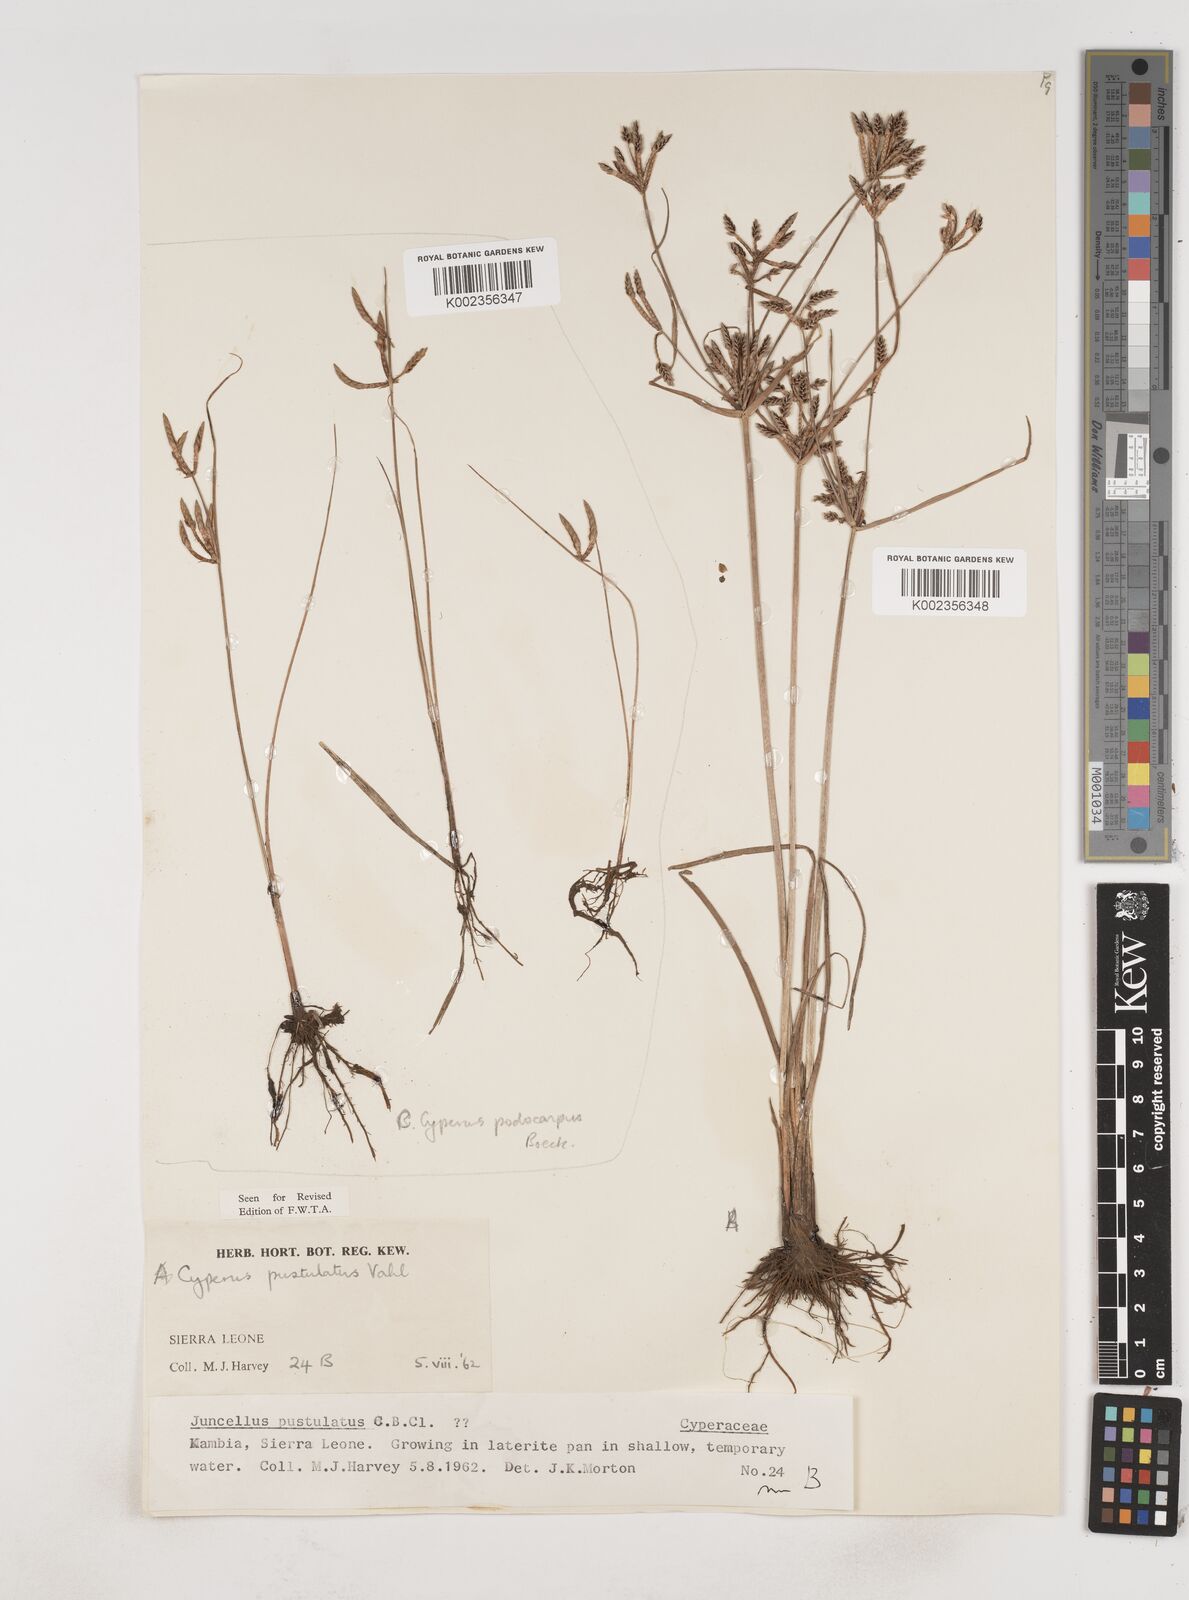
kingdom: Plantae
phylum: Tracheophyta
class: Liliopsida
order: Poales
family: Cyperaceae
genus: Cyperus
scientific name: Cyperus pustulatus
